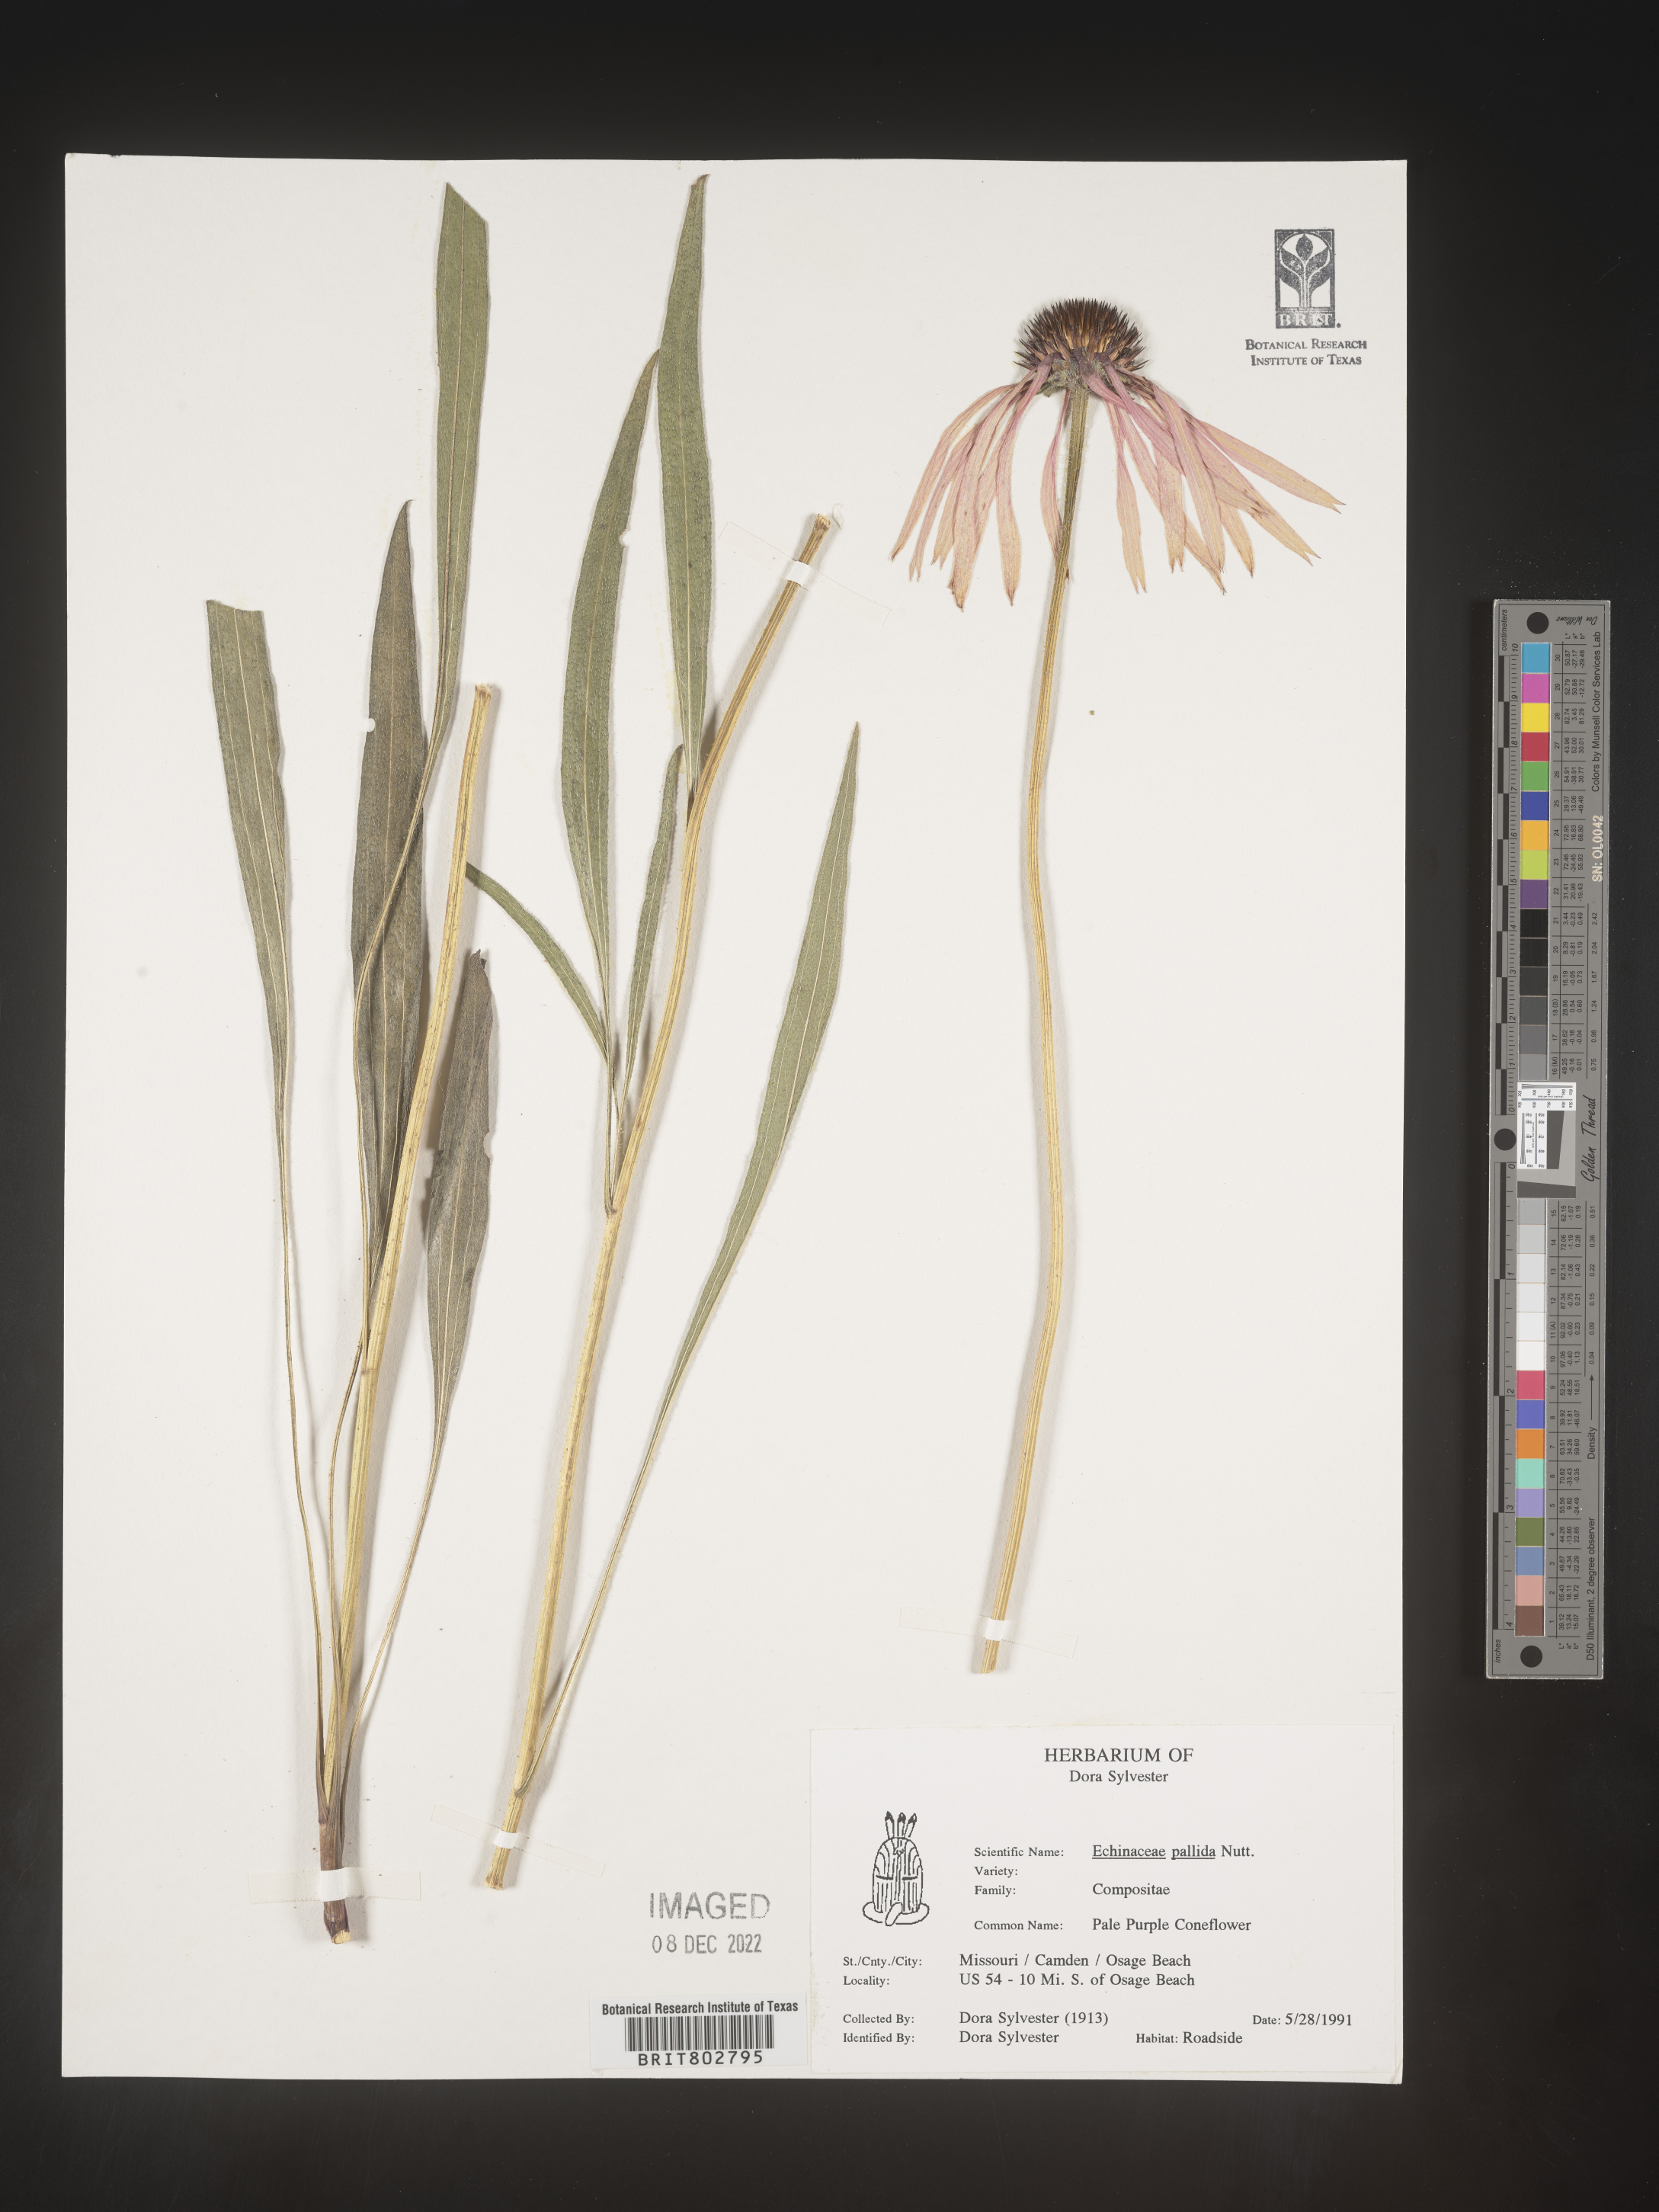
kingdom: Plantae
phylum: Tracheophyta
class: Magnoliopsida
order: Asterales
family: Asteraceae
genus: Echinacea
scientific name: Echinacea pallida
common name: Pale echinacea
